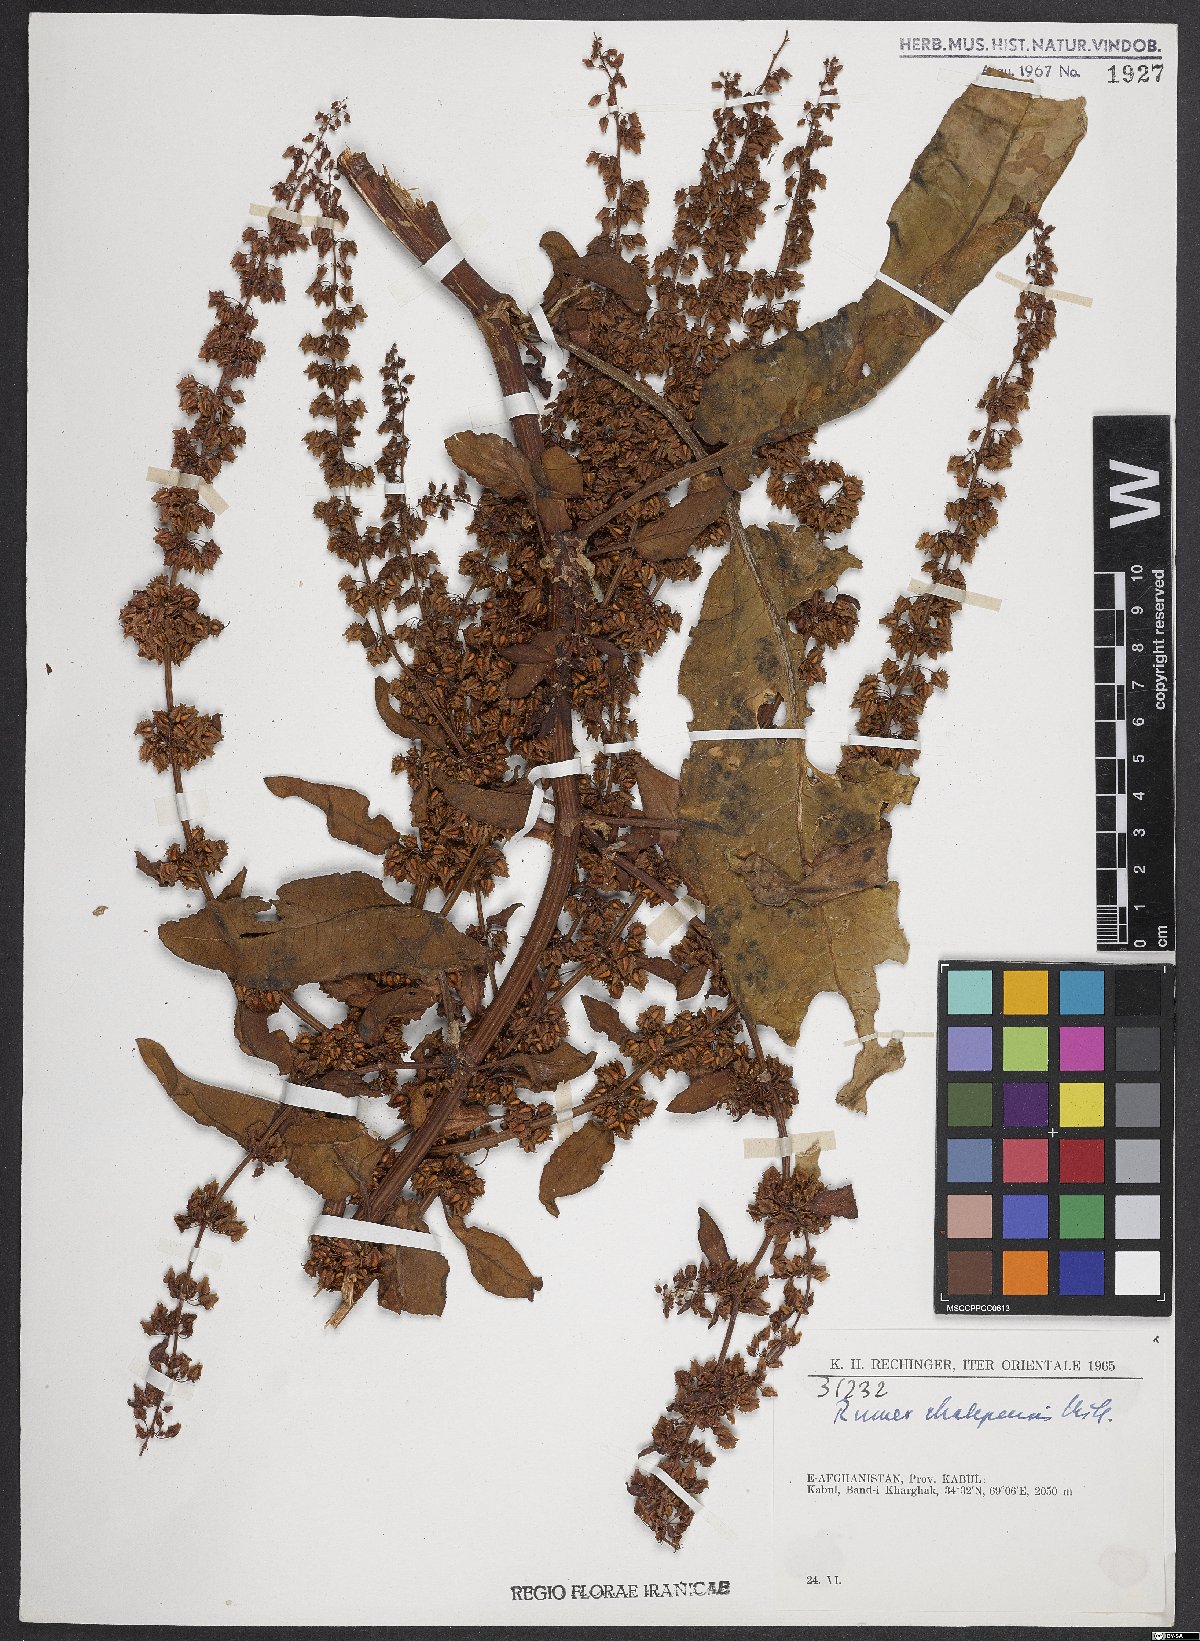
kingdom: Plantae
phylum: Tracheophyta
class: Magnoliopsida
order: Caryophyllales
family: Polygonaceae
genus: Rumex
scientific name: Rumex chalepensis
